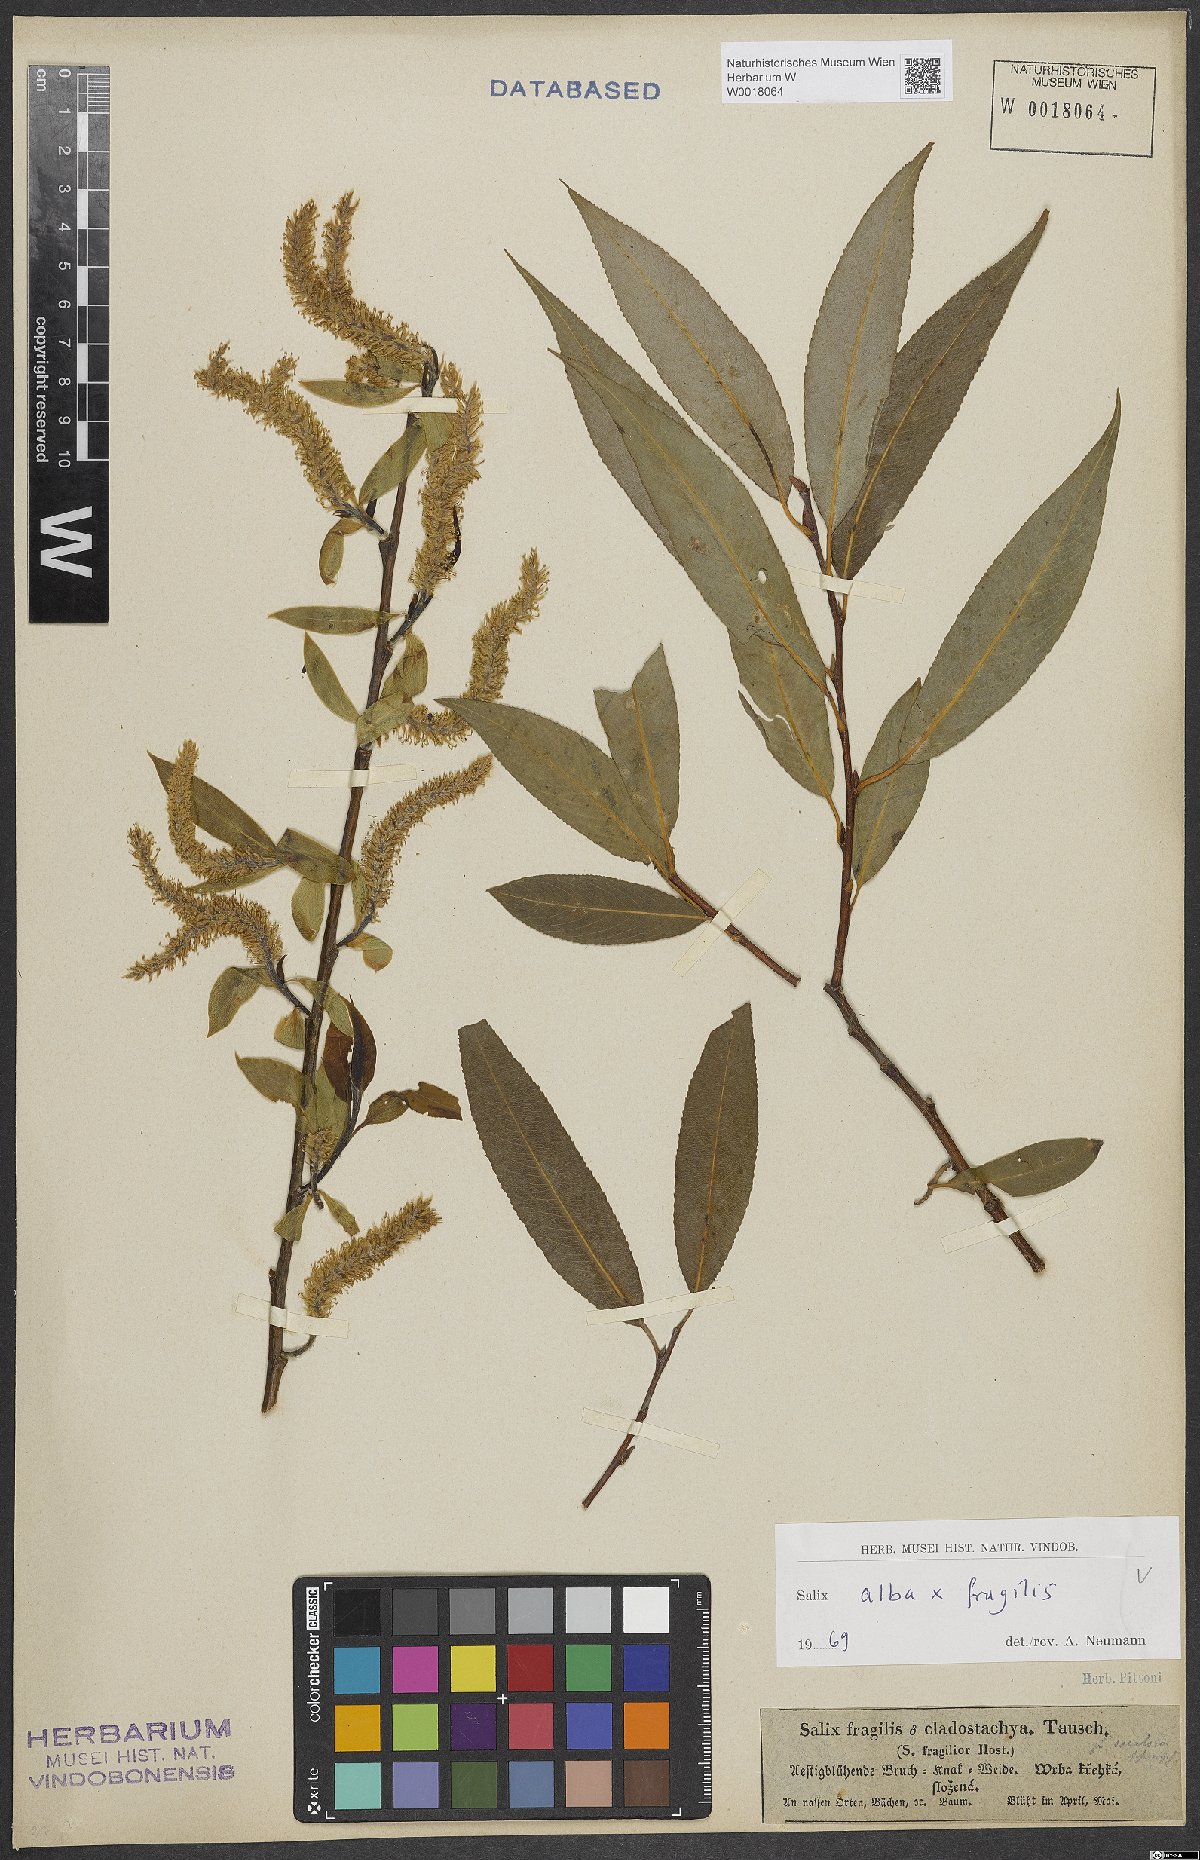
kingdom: Plantae
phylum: Tracheophyta
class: Magnoliopsida
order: Malpighiales
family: Salicaceae
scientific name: Salicaceae
